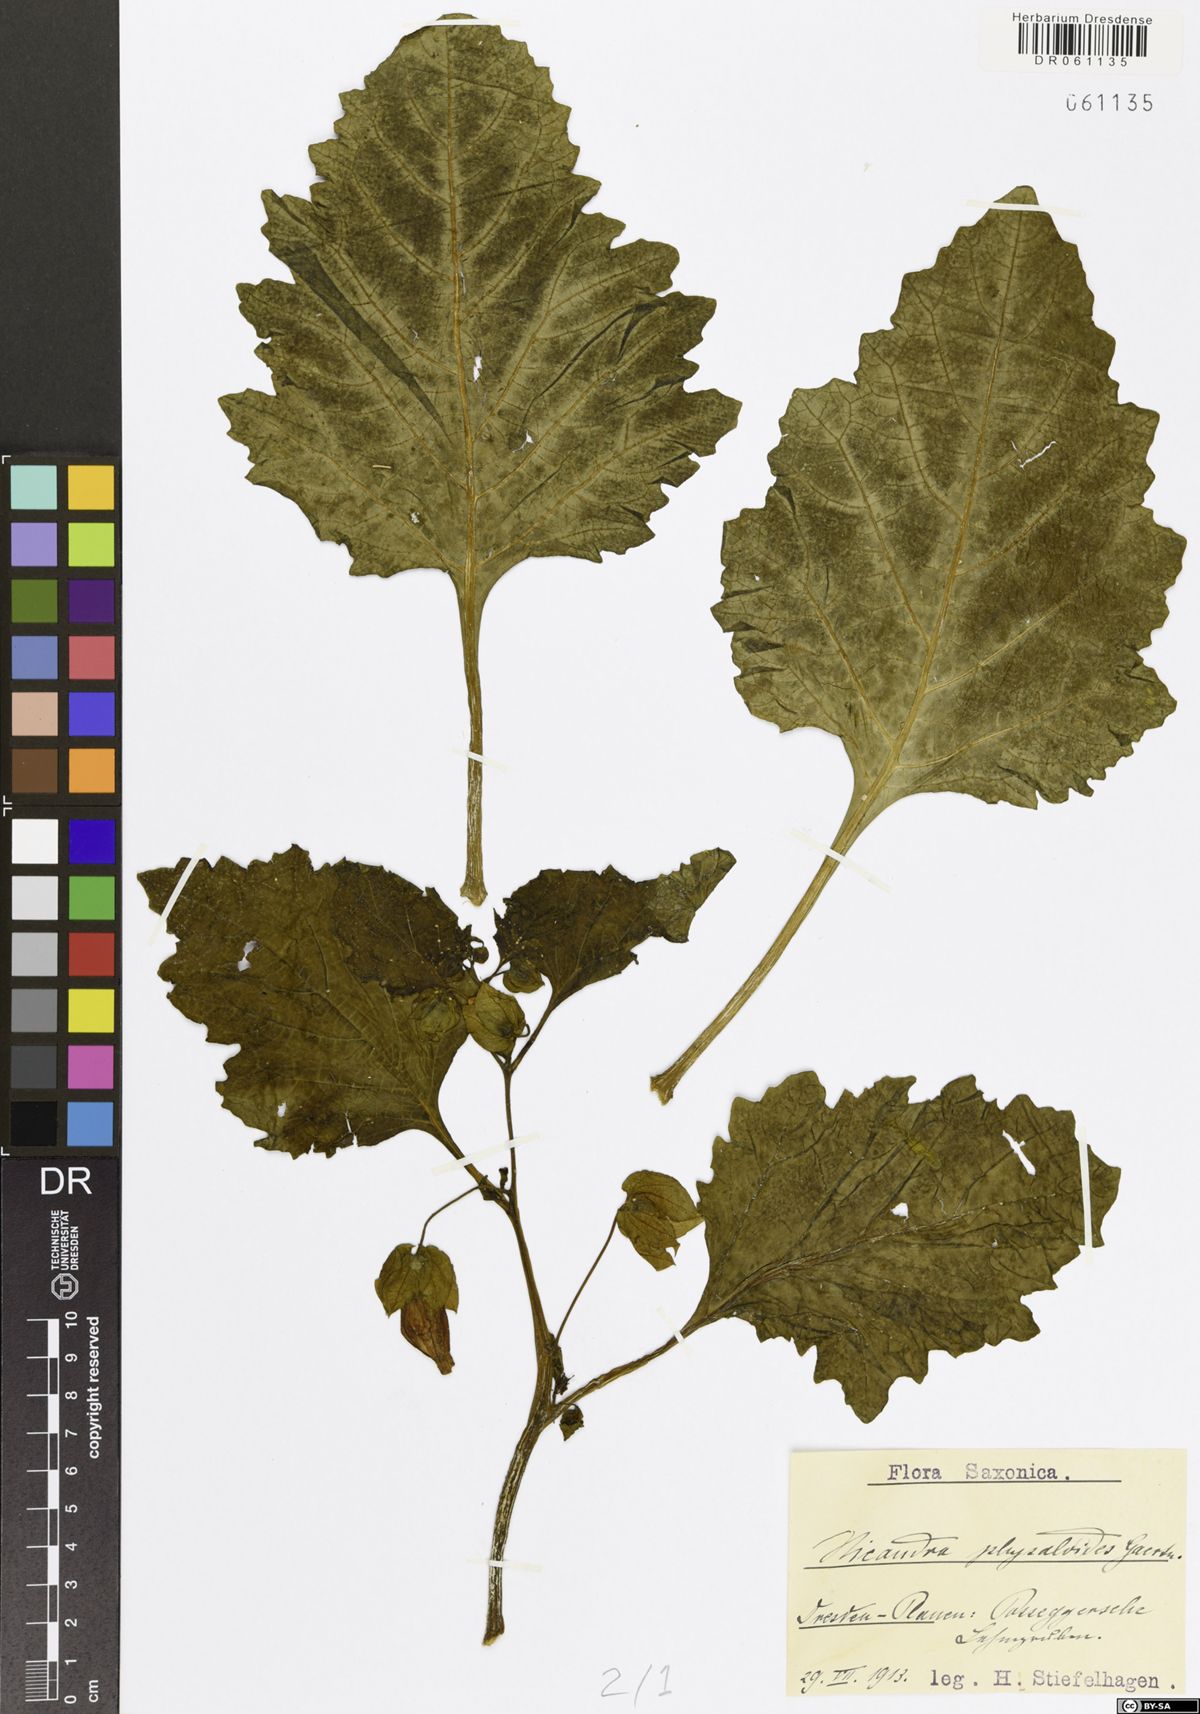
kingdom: Plantae
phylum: Tracheophyta
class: Magnoliopsida
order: Solanales
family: Solanaceae
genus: Nicandra
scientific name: Nicandra physalodes
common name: Apple-of-peru
